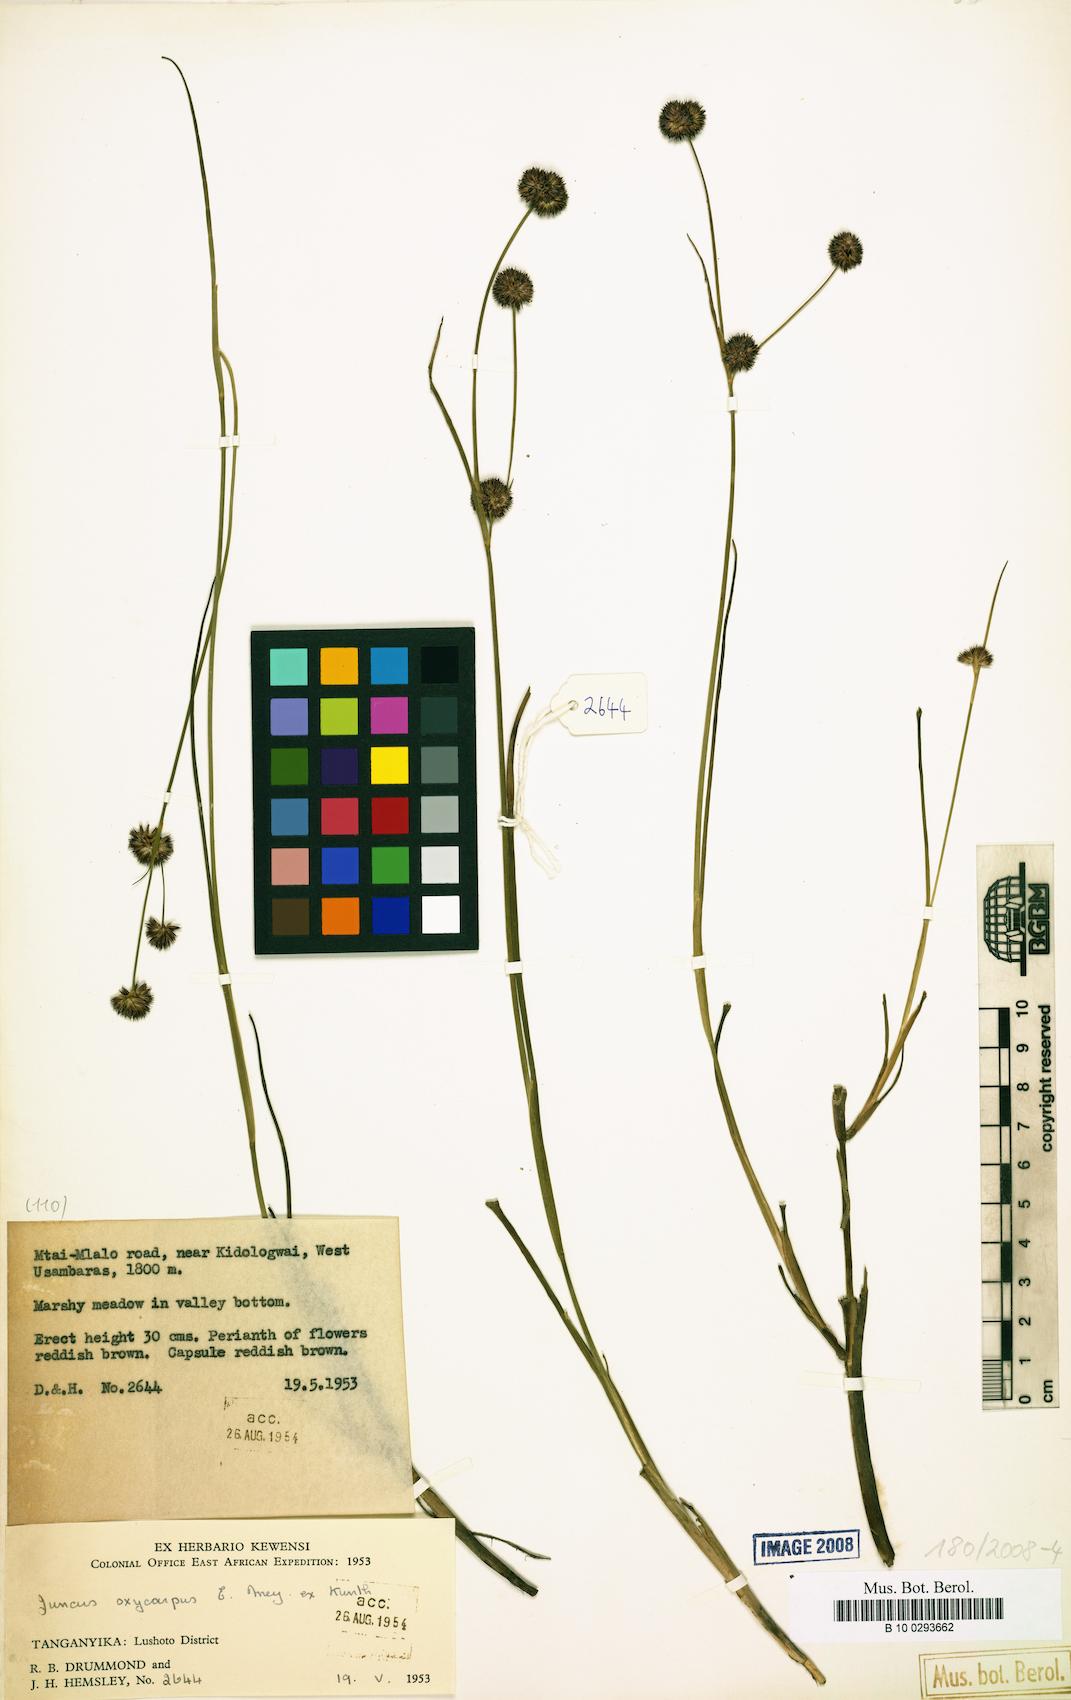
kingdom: Plantae
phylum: Tracheophyta
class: Liliopsida
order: Poales
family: Juncaceae
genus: Juncus
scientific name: Juncus oxycarpus
